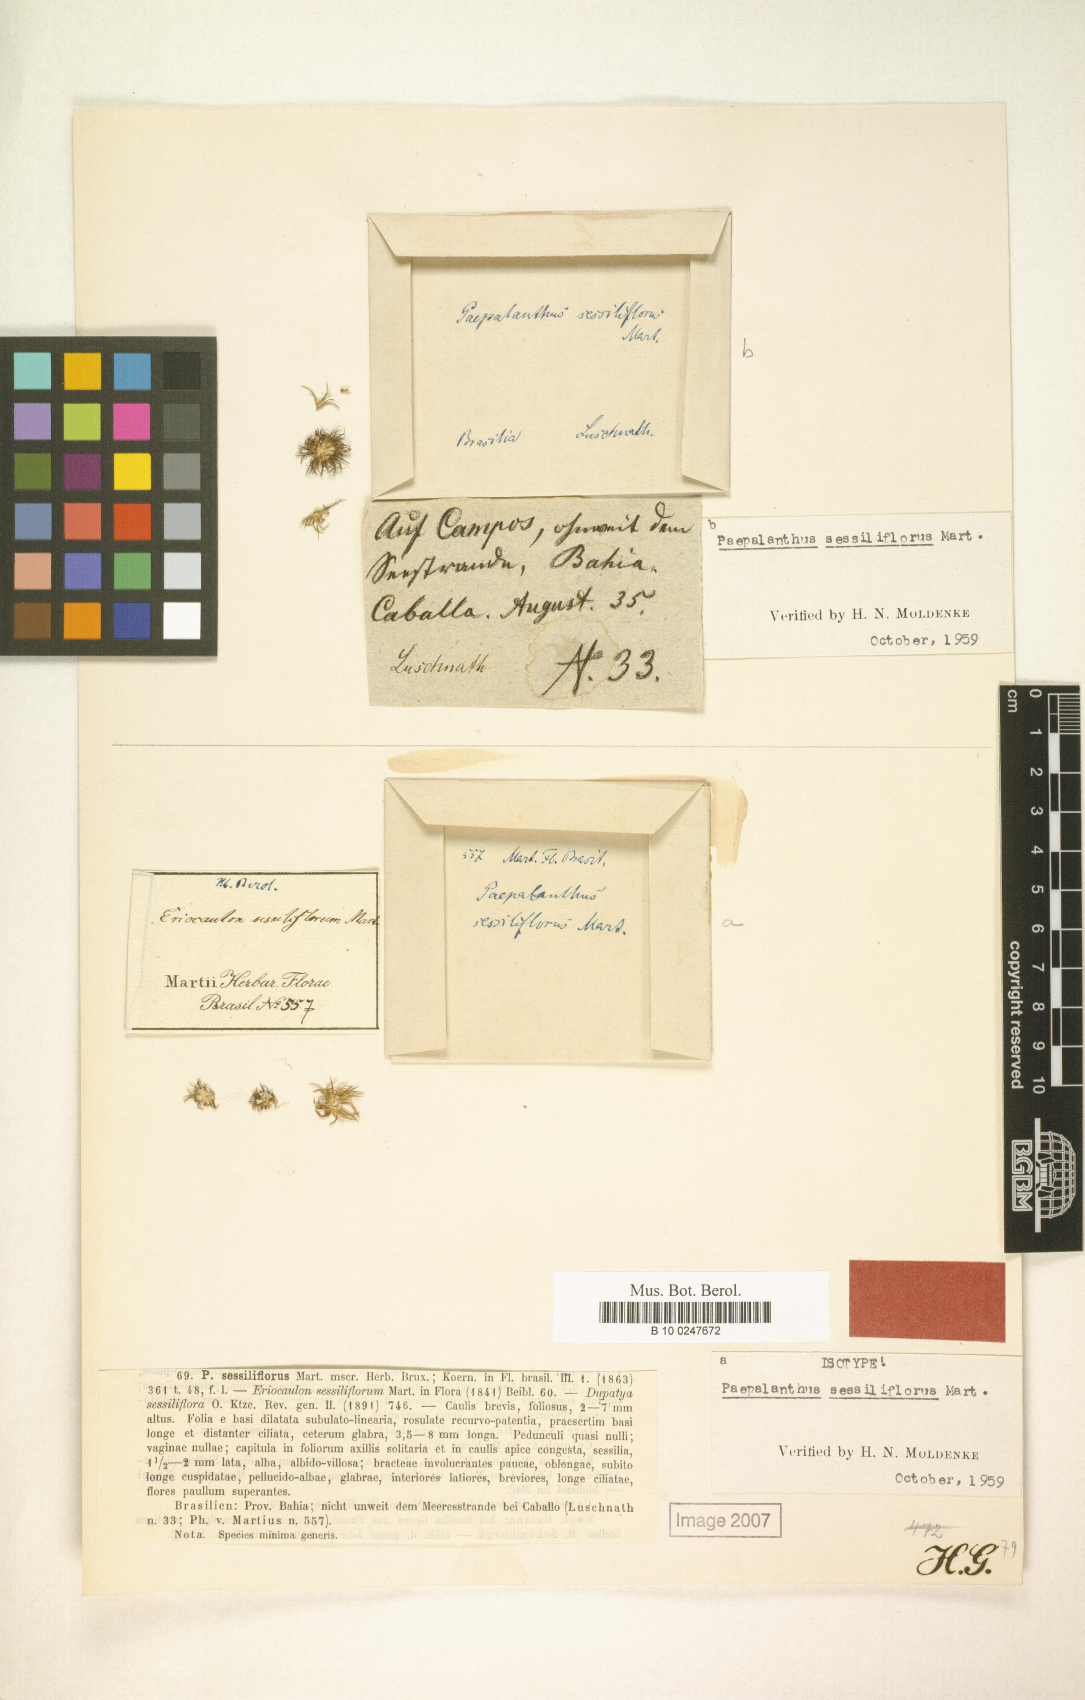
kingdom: Plantae
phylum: Tracheophyta
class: Liliopsida
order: Poales
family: Eriocaulaceae
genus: Paepalanthus
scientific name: Paepalanthus sessiliflorus
